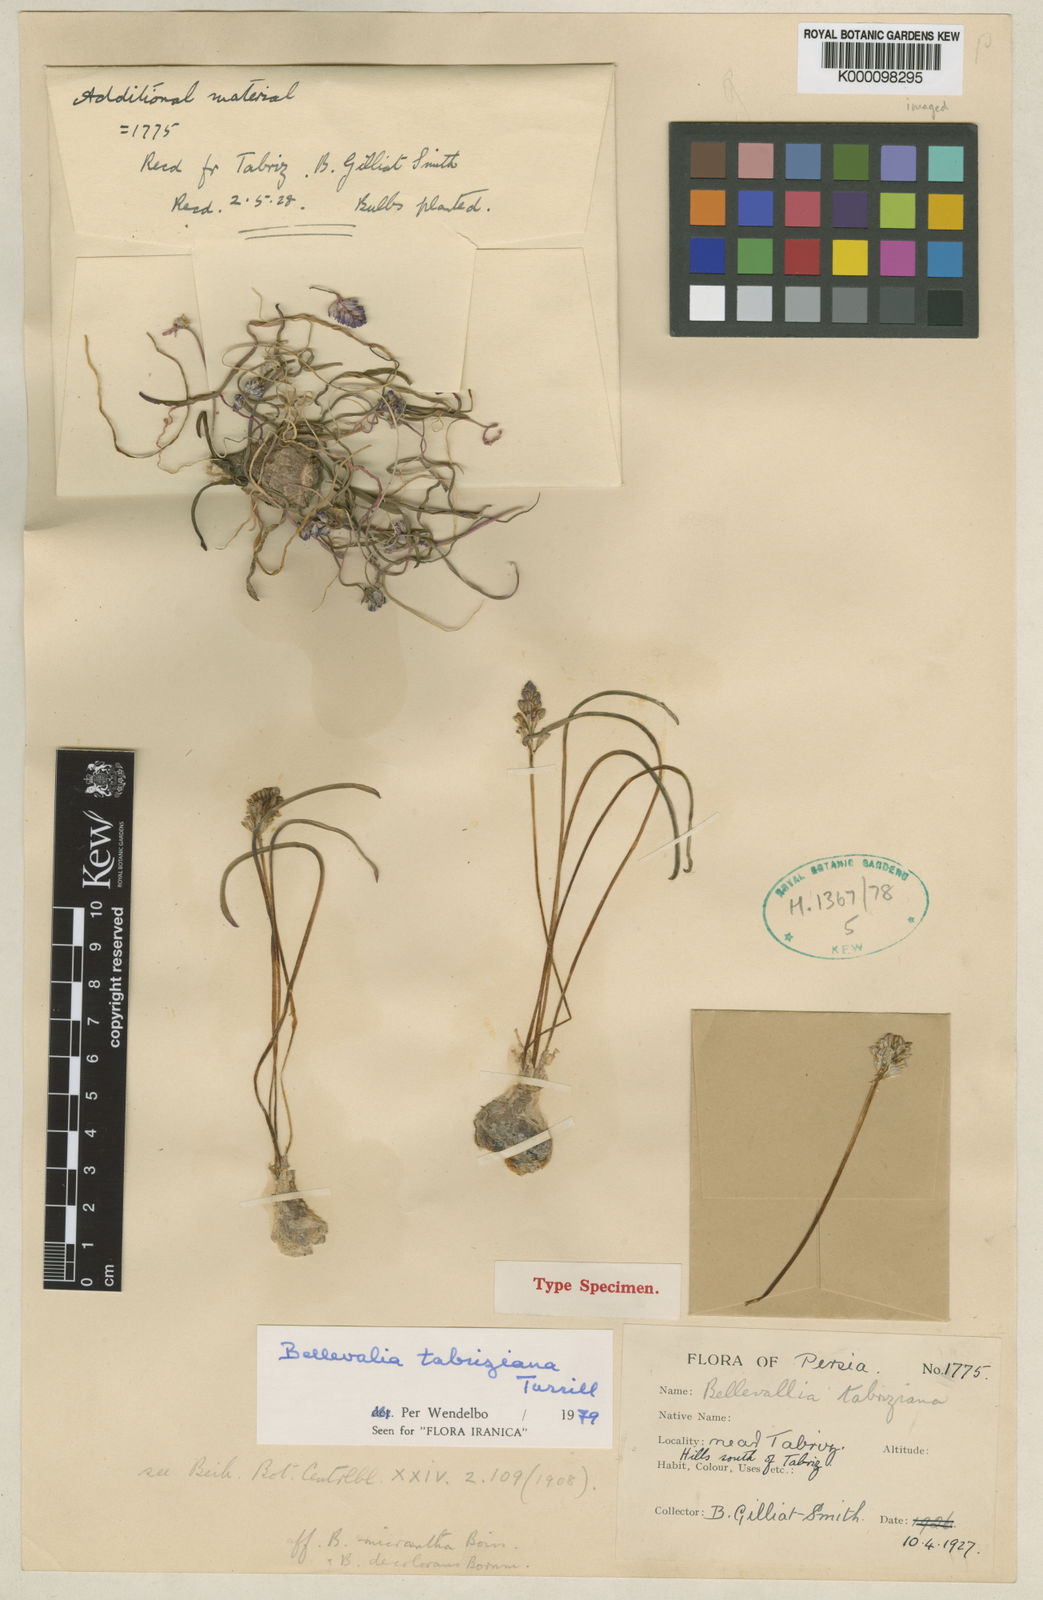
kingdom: Plantae
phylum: Tracheophyta
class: Liliopsida
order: Asparagales
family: Asparagaceae
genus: Bellevalia
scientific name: Bellevalia tabriziana
